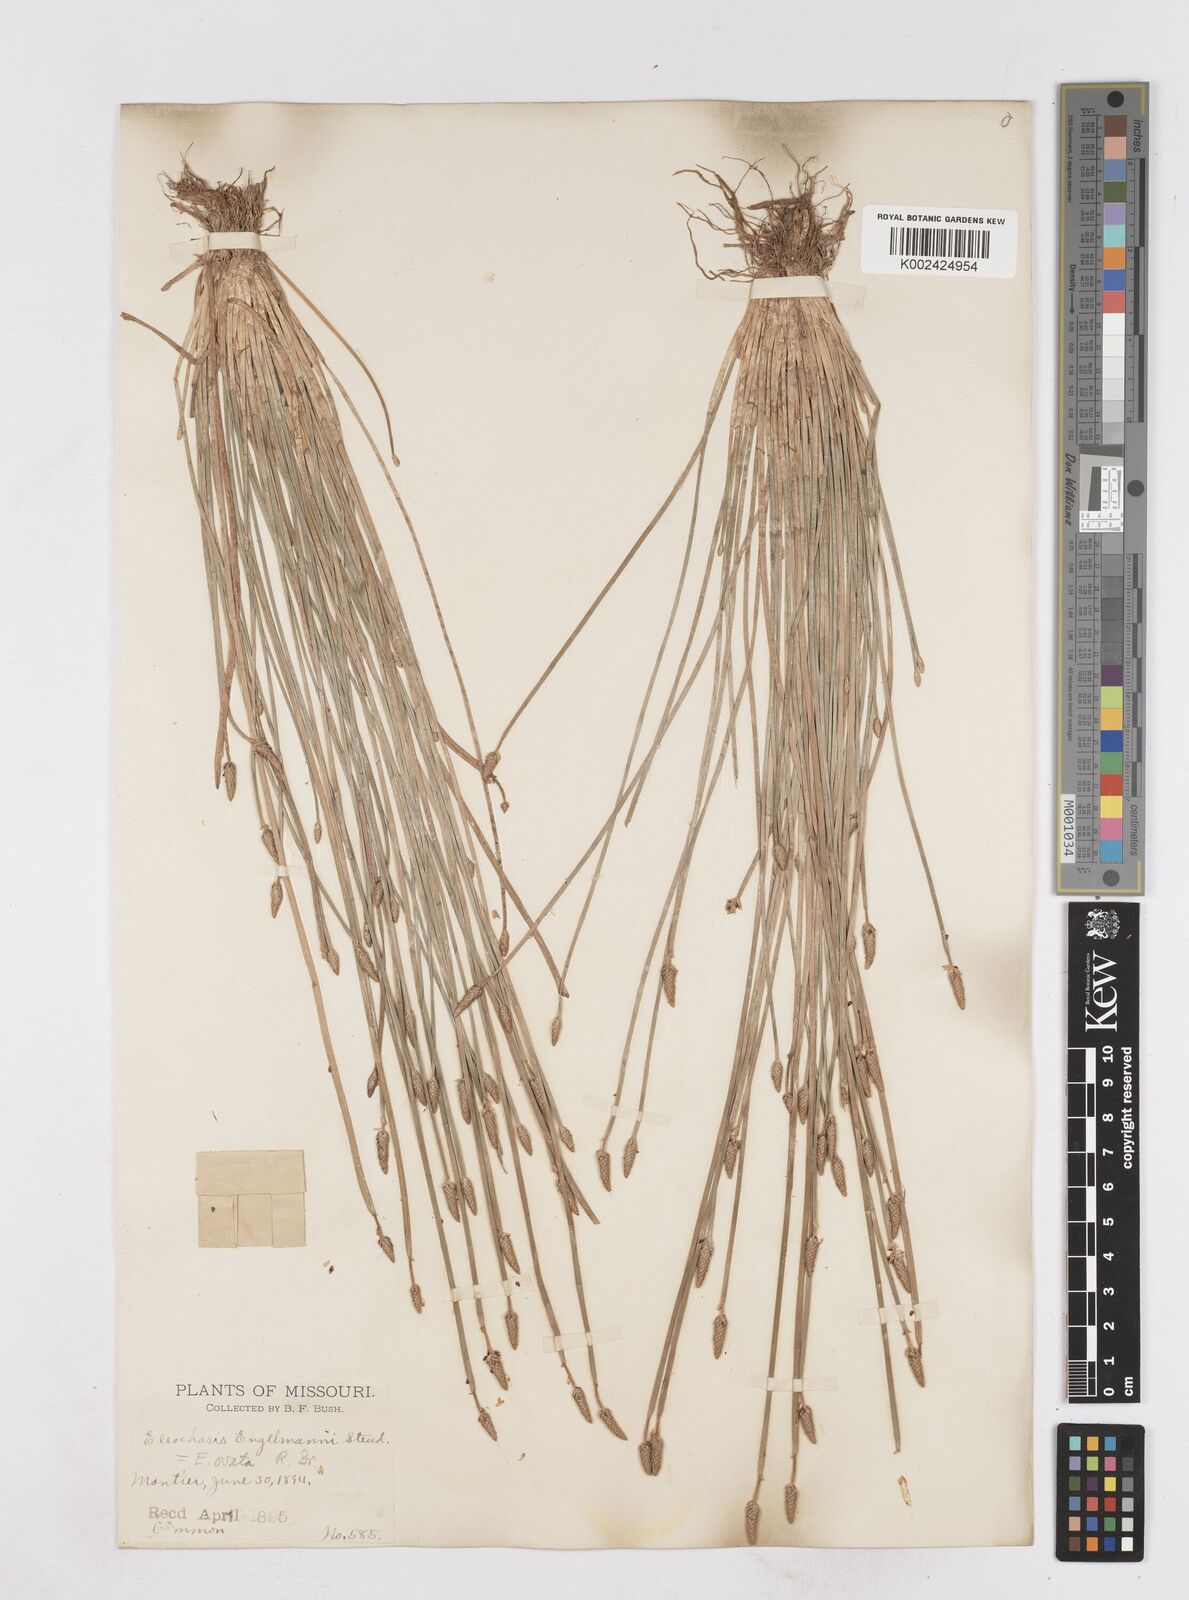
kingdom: Plantae
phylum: Tracheophyta
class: Liliopsida
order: Poales
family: Cyperaceae
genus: Eleocharis
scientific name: Eleocharis engelmannii
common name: Engelmann's spikerush
